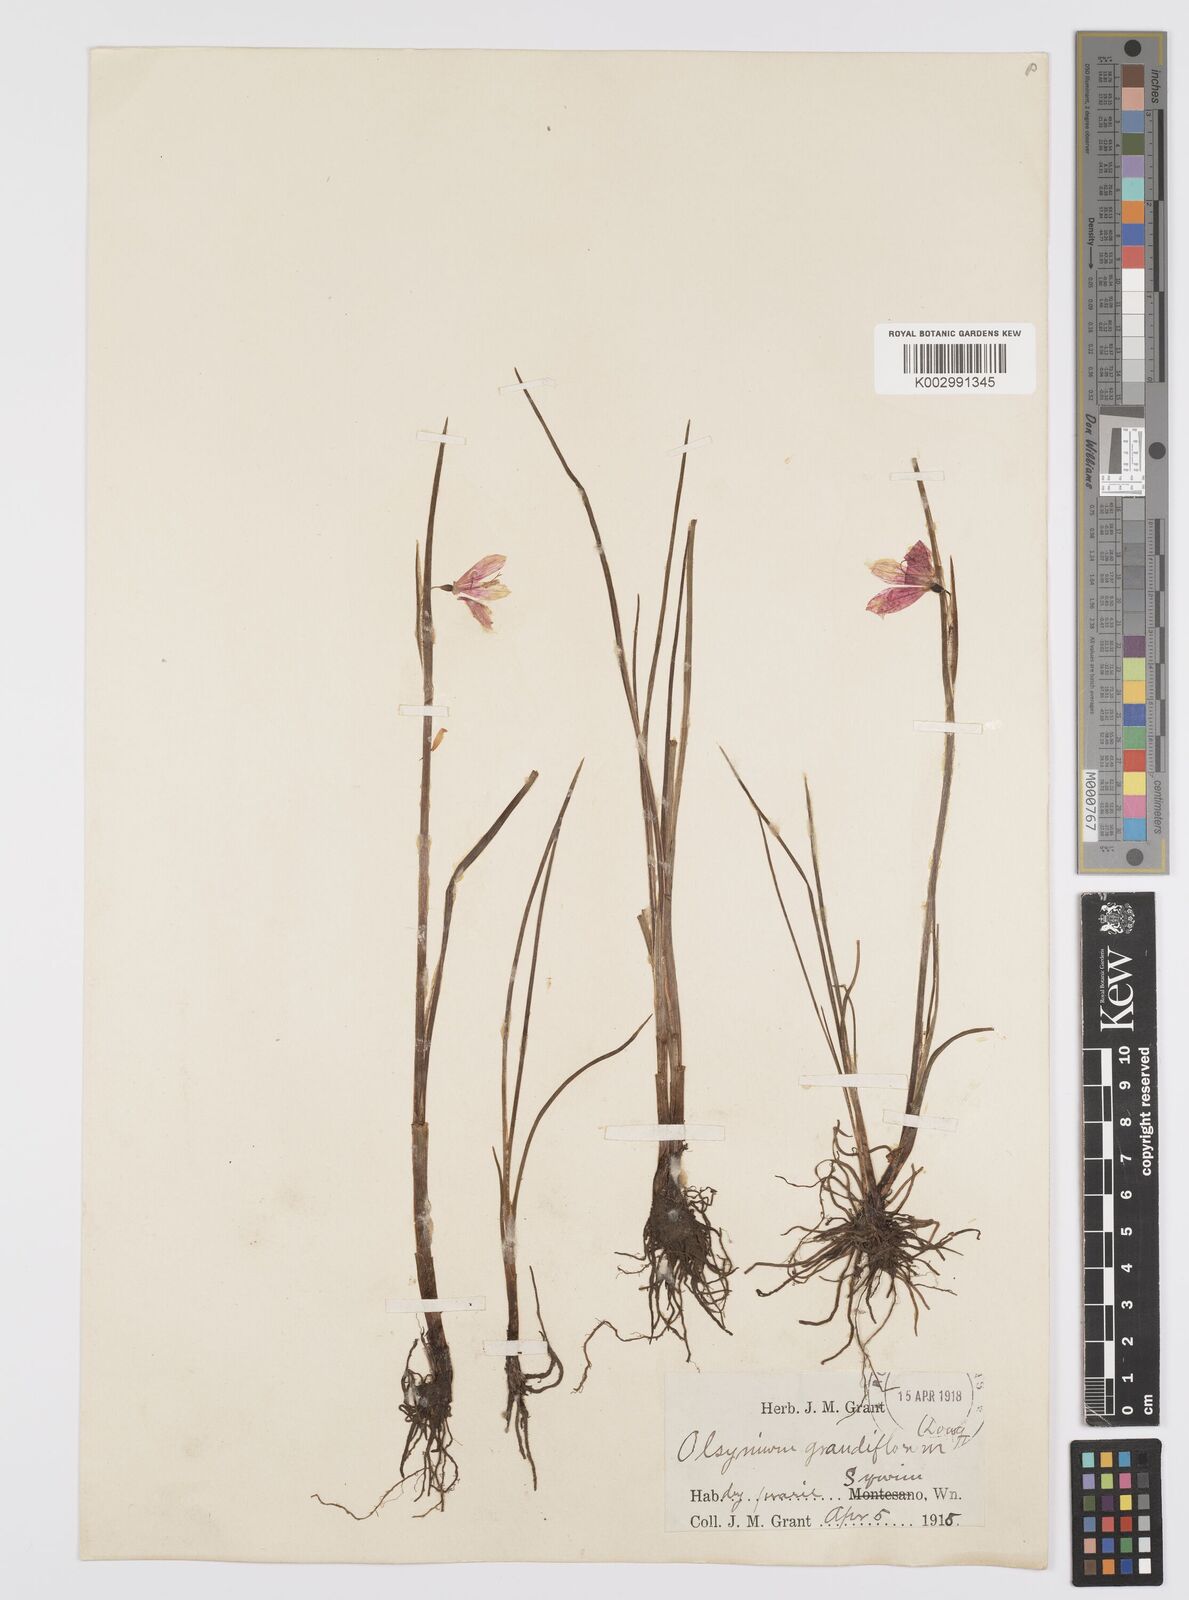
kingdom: Plantae
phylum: Tracheophyta
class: Liliopsida
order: Asparagales
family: Iridaceae
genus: Olsynium
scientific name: Olsynium douglasii
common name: Douglas' grasswidow
